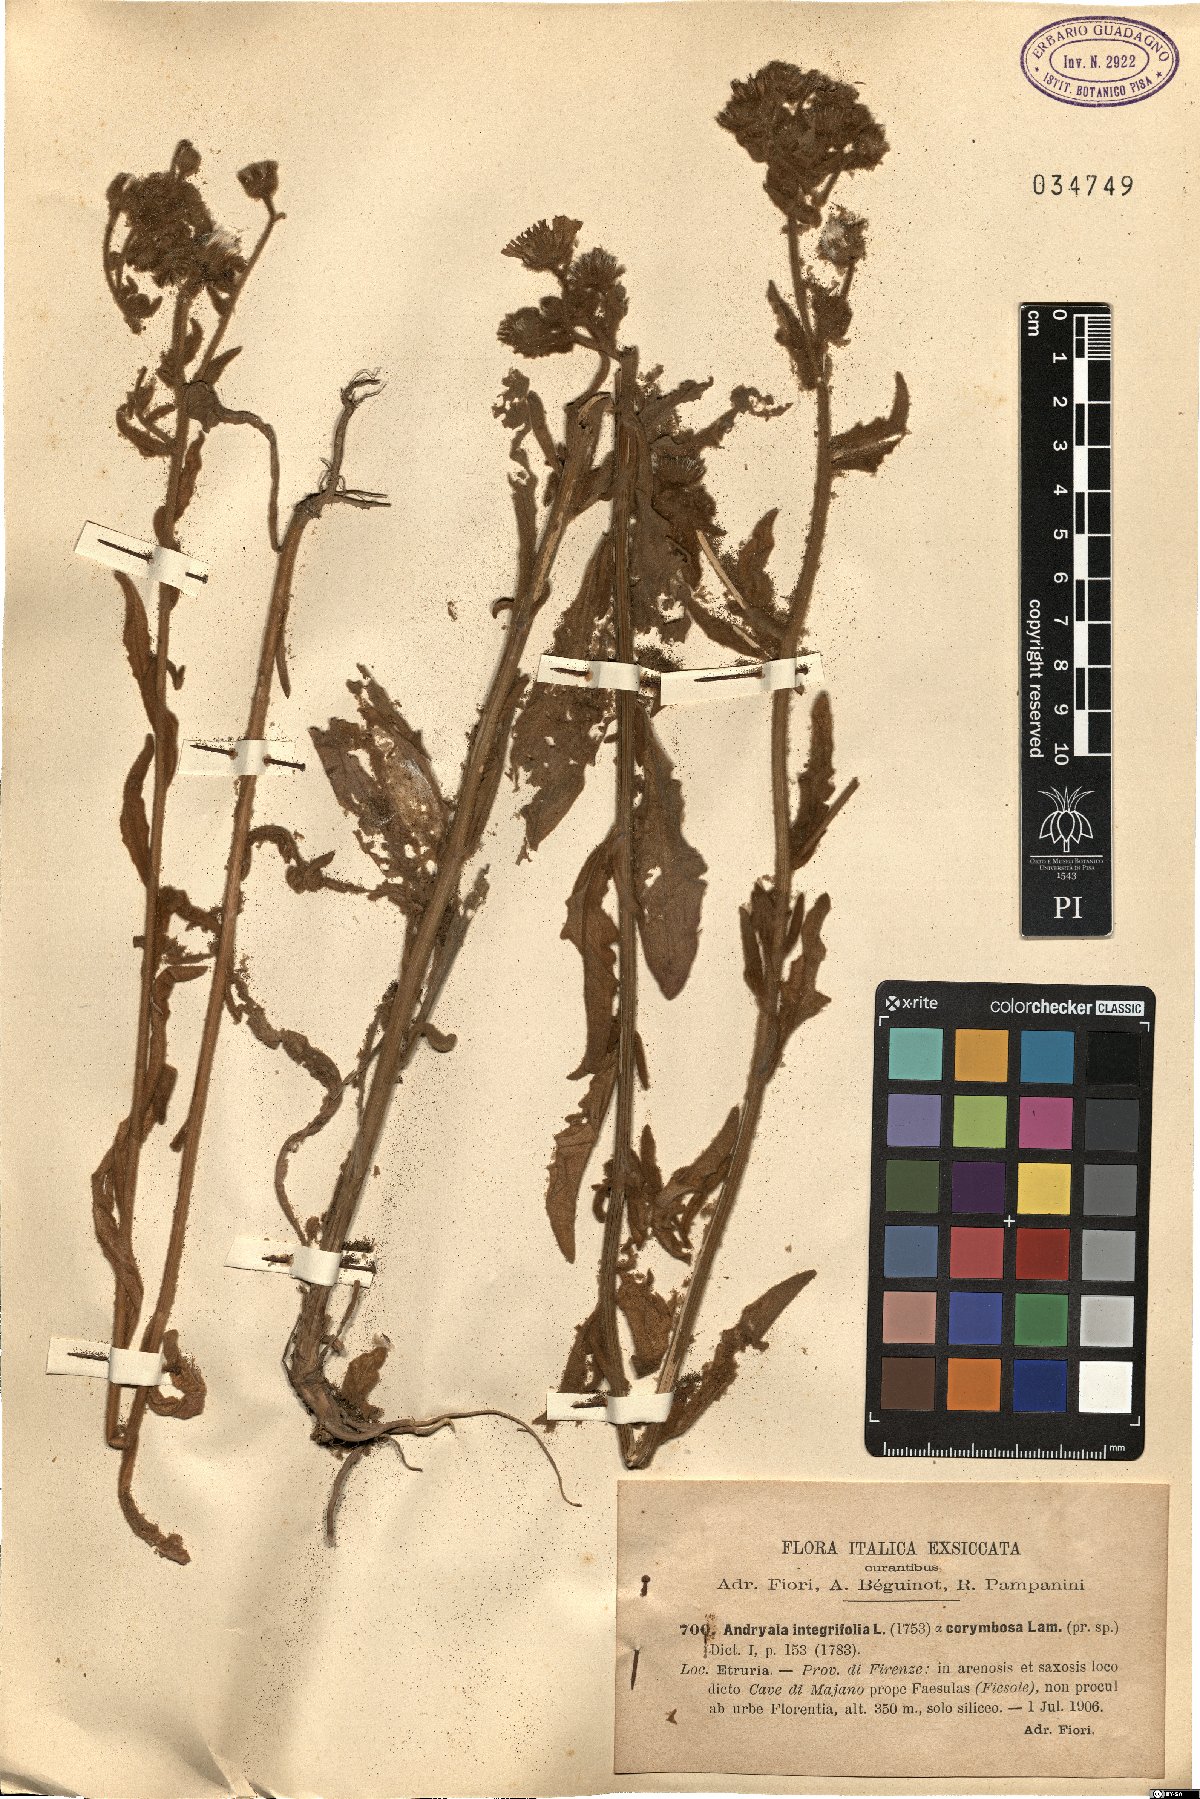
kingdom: Plantae
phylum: Tracheophyta
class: Magnoliopsida
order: Asterales
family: Asteraceae
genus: Andryala
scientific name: Andryala integrifolia
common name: Common andryala
